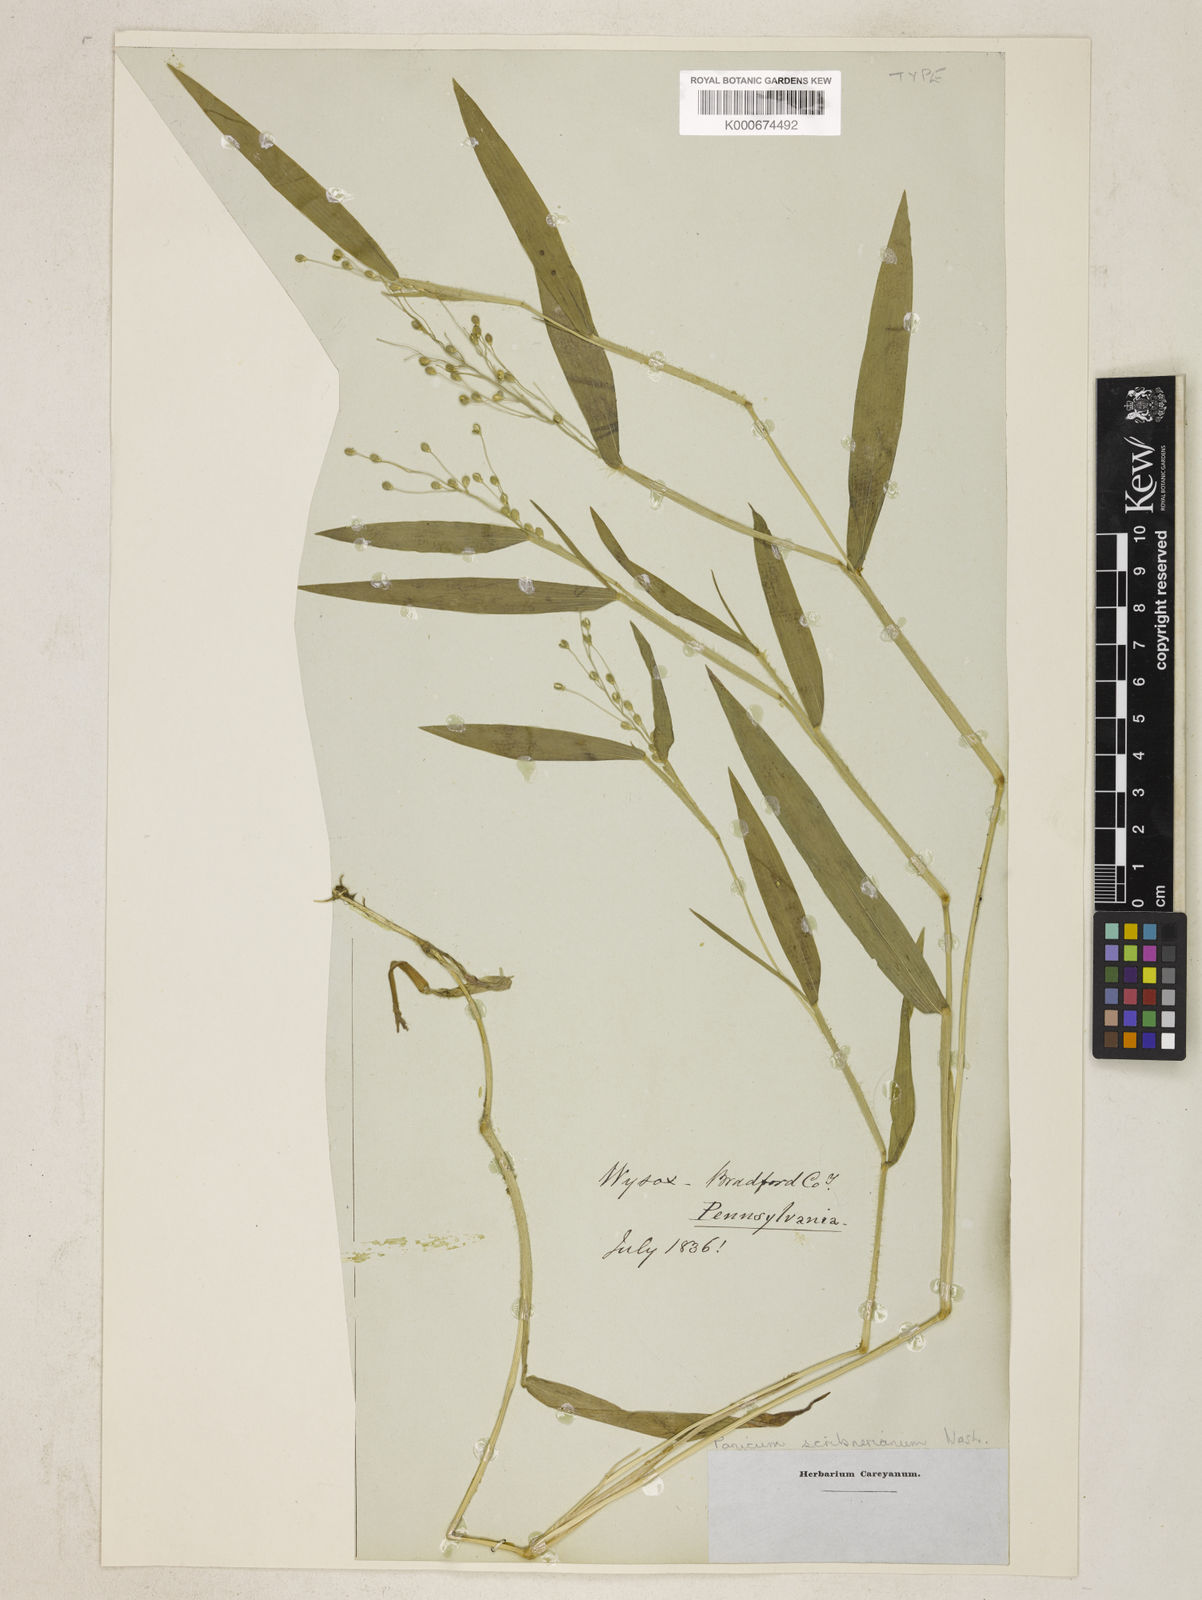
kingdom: Plantae
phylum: Tracheophyta
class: Liliopsida
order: Poales
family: Poaceae
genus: Dichanthelium
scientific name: Dichanthelium scribnerianum
